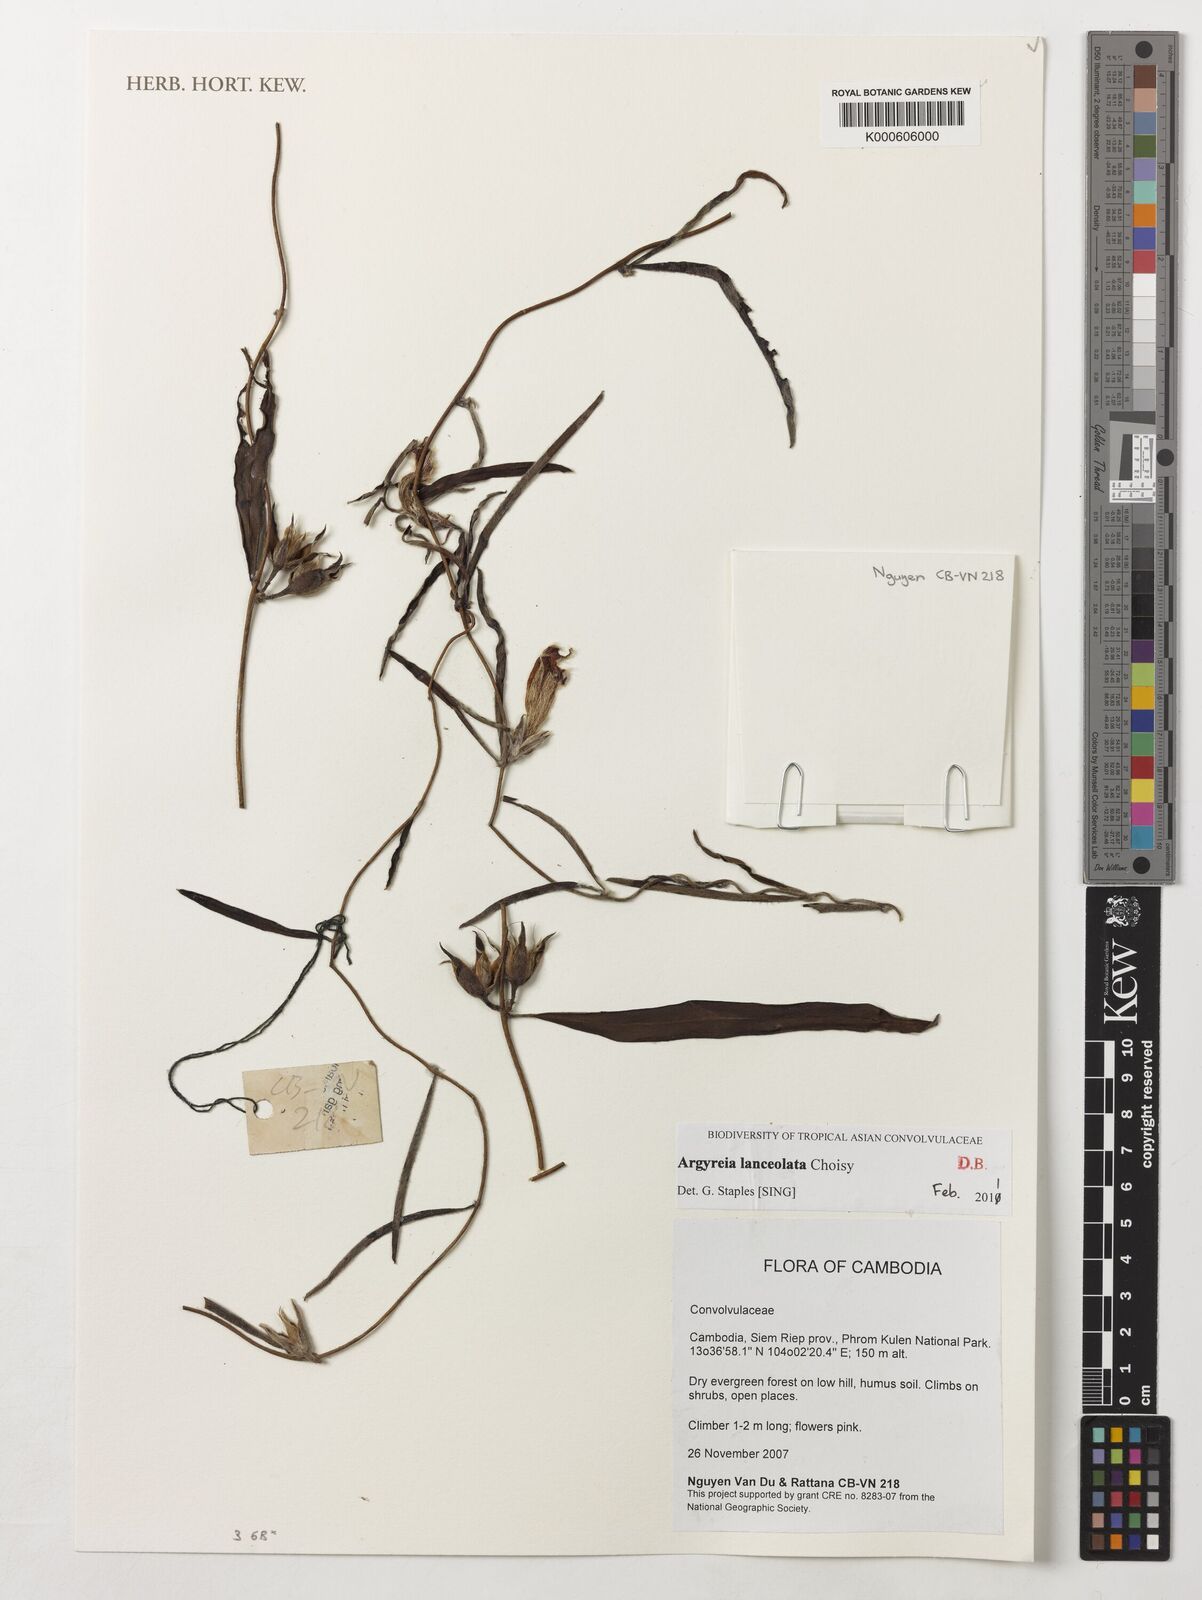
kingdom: Plantae
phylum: Tracheophyta
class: Magnoliopsida
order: Solanales
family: Convolvulaceae
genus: Argyreia
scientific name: Argyreia lanceolata
